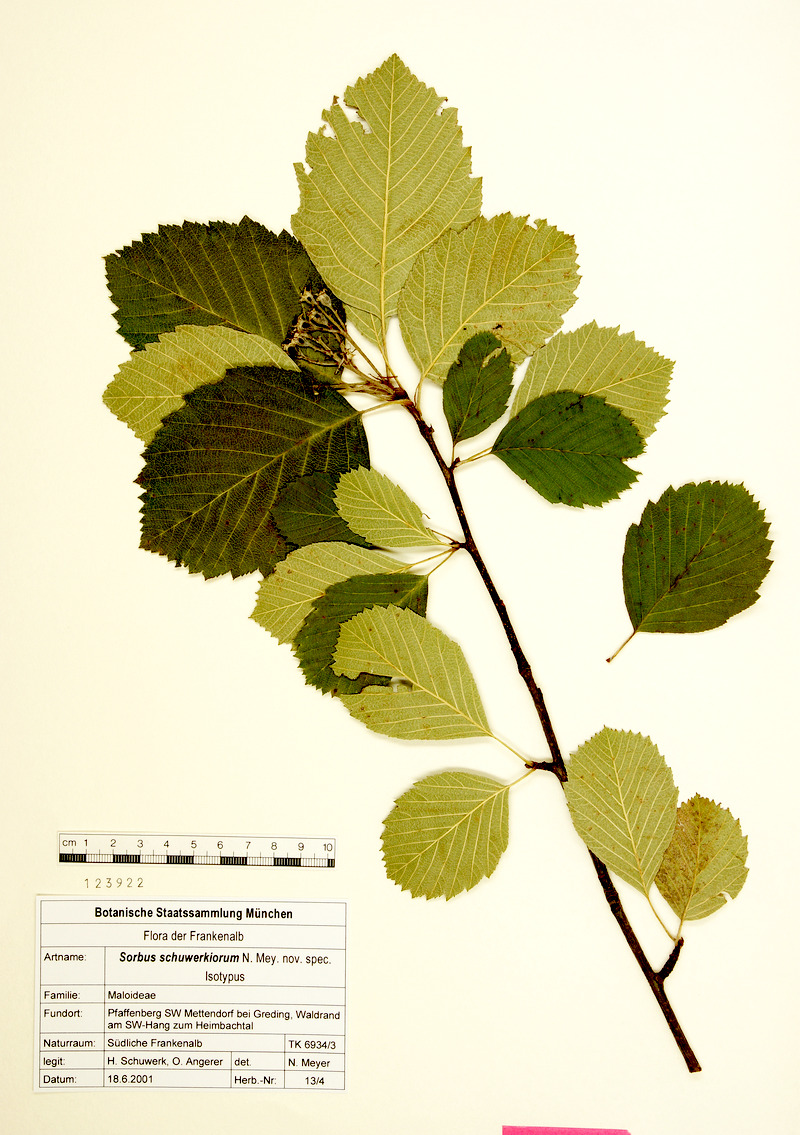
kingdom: Plantae
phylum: Tracheophyta
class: Magnoliopsida
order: Rosales
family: Rosaceae
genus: Karpatiosorbus
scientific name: Karpatiosorbus schuwerkiorum
